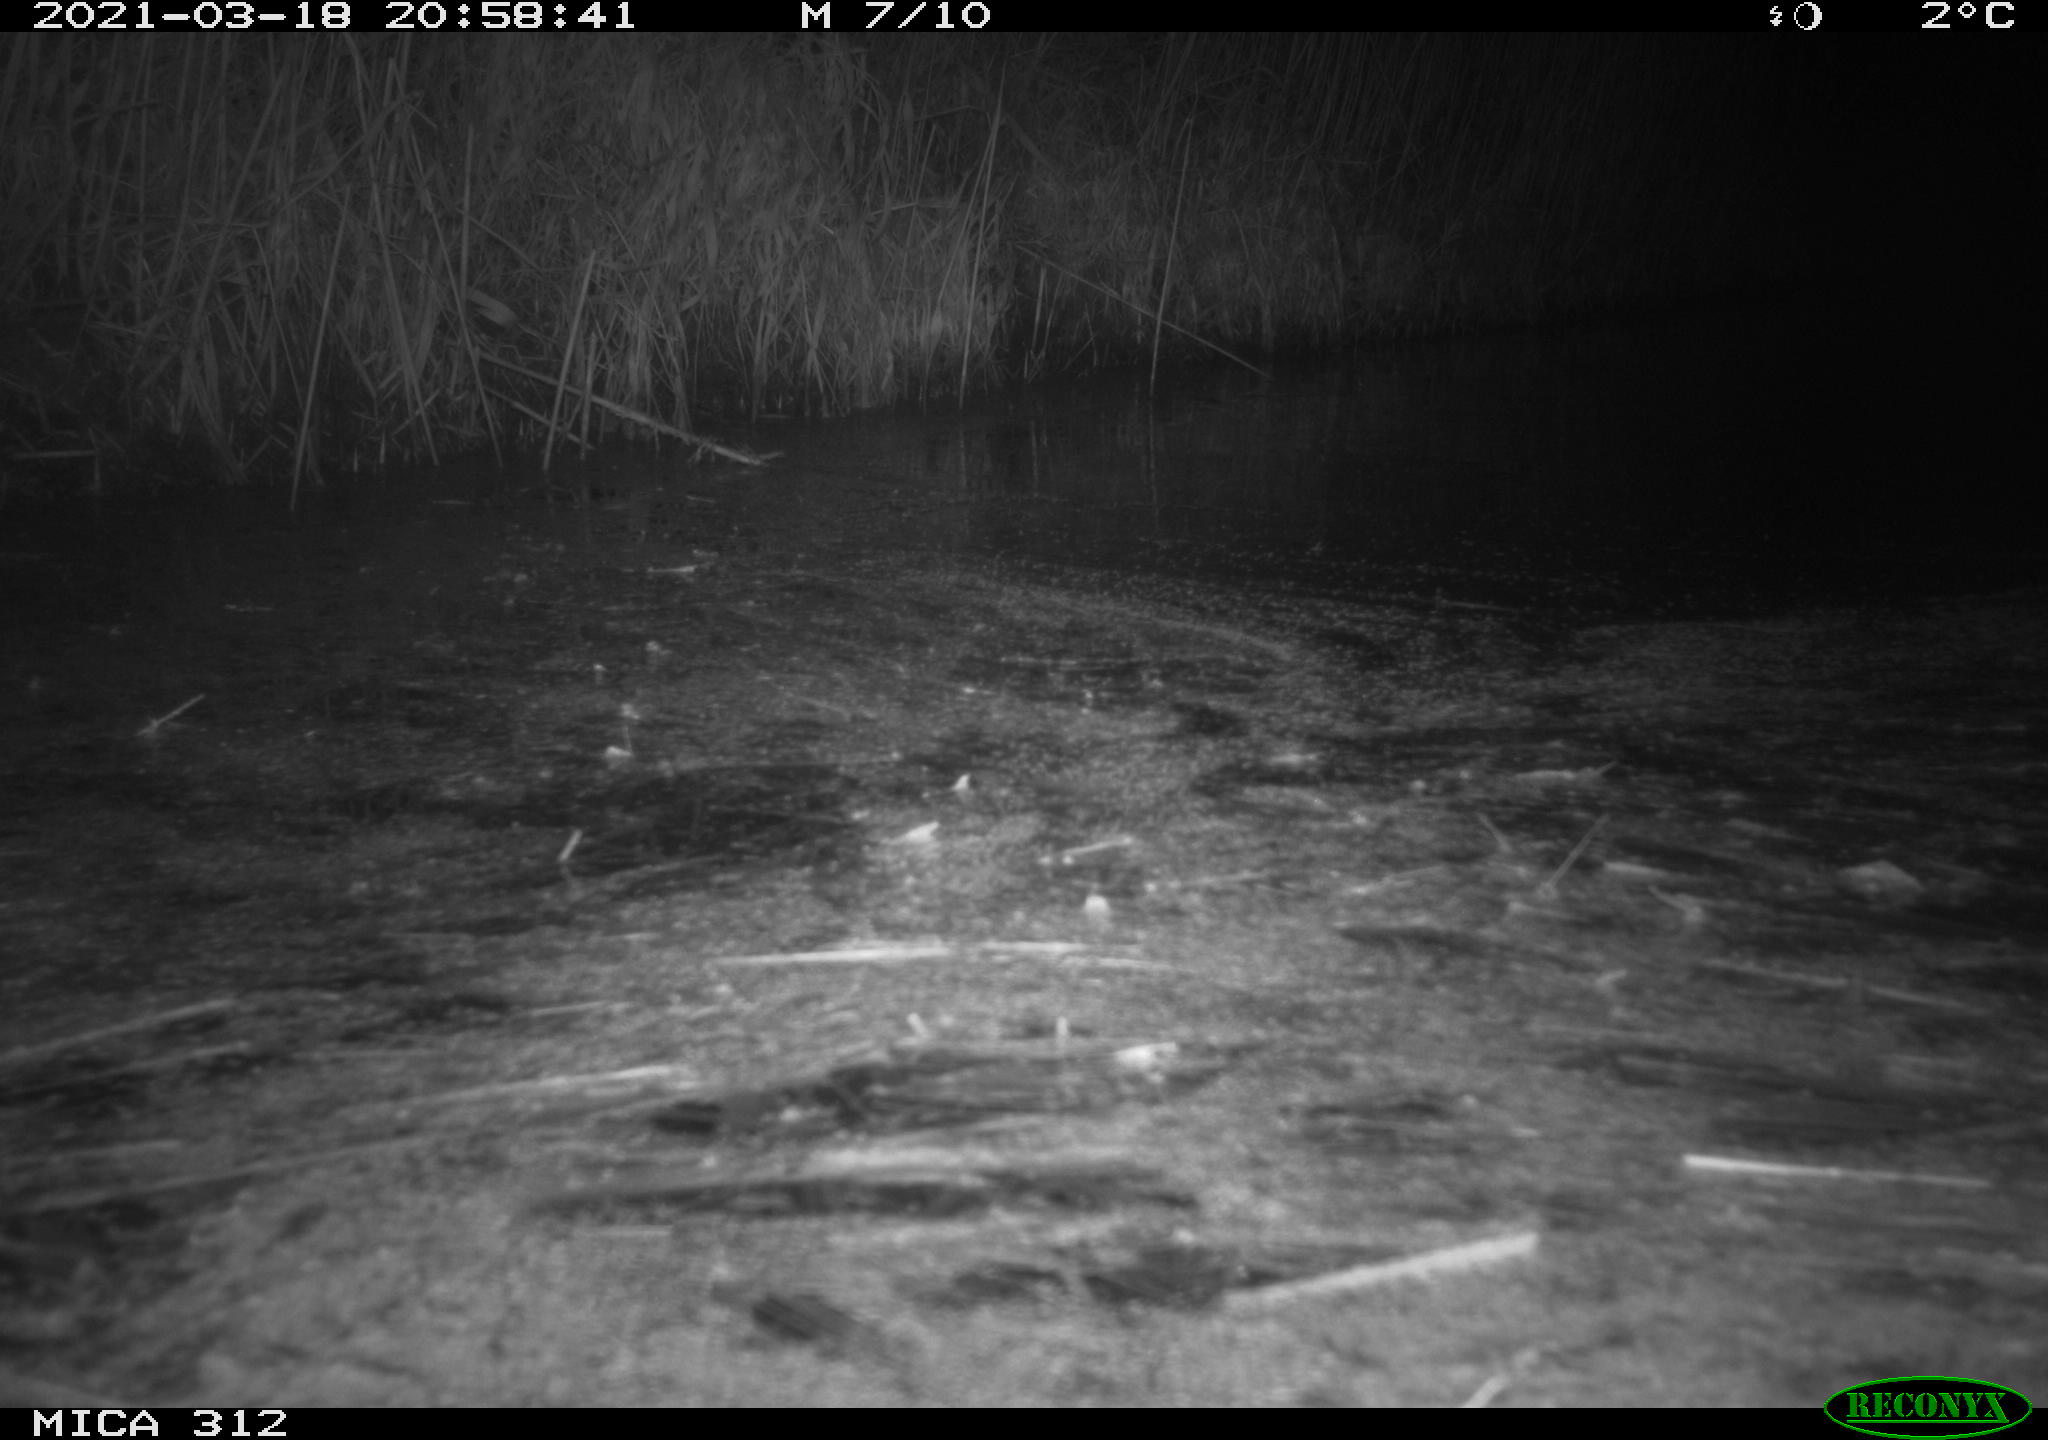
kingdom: Animalia
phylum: Chordata
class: Aves
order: Gruiformes
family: Rallidae
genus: Fulica
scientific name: Fulica atra
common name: Eurasian coot
